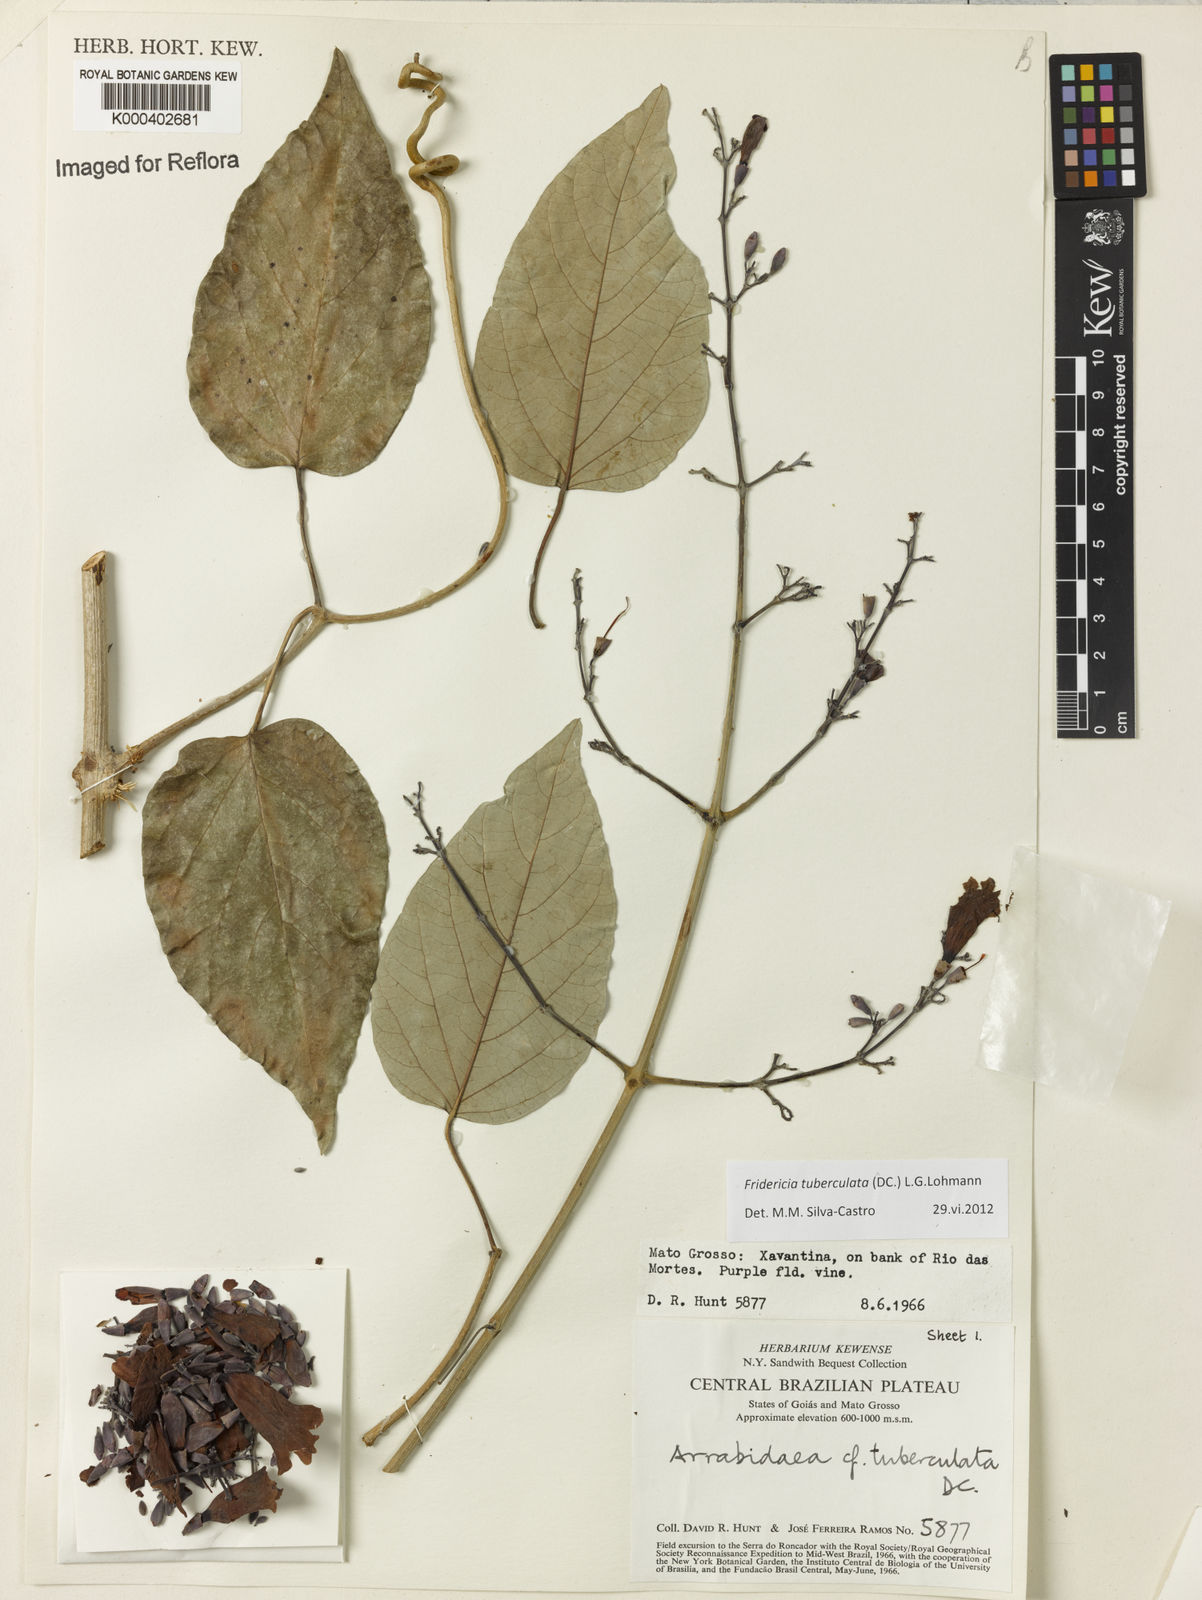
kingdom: Plantae
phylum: Tracheophyta
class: Magnoliopsida
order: Lamiales
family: Bignoniaceae
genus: Fridericia
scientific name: Fridericia tuberculata
